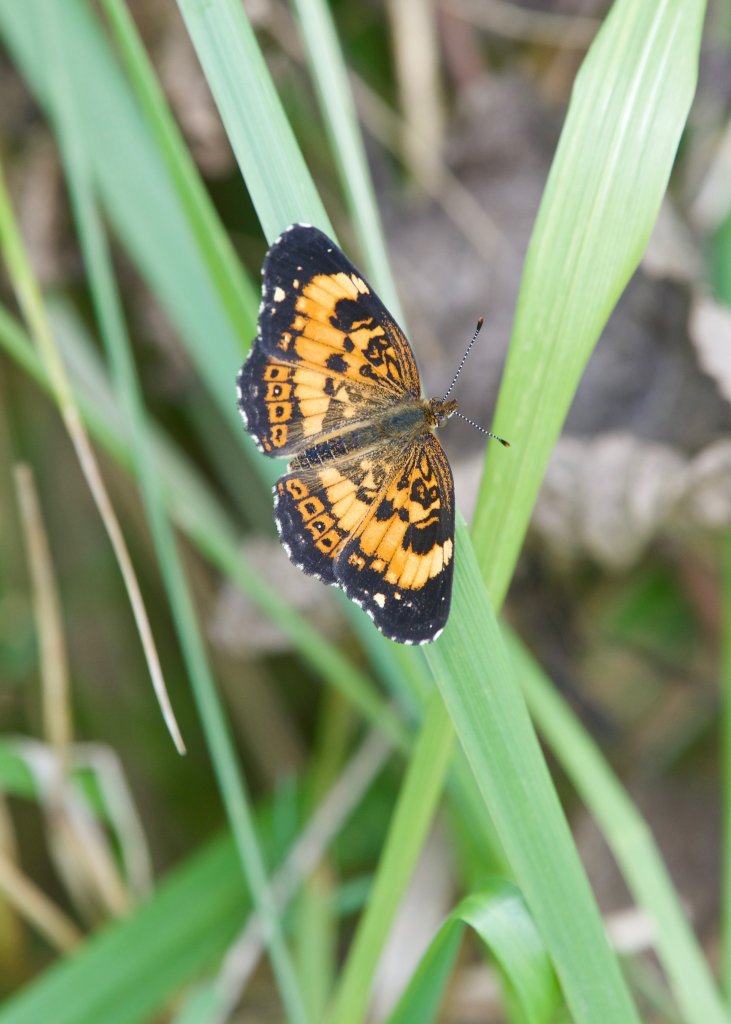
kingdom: Animalia
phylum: Arthropoda
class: Insecta
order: Lepidoptera
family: Nymphalidae
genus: Chlosyne
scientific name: Chlosyne nycteis
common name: Silvery Checkerspot
